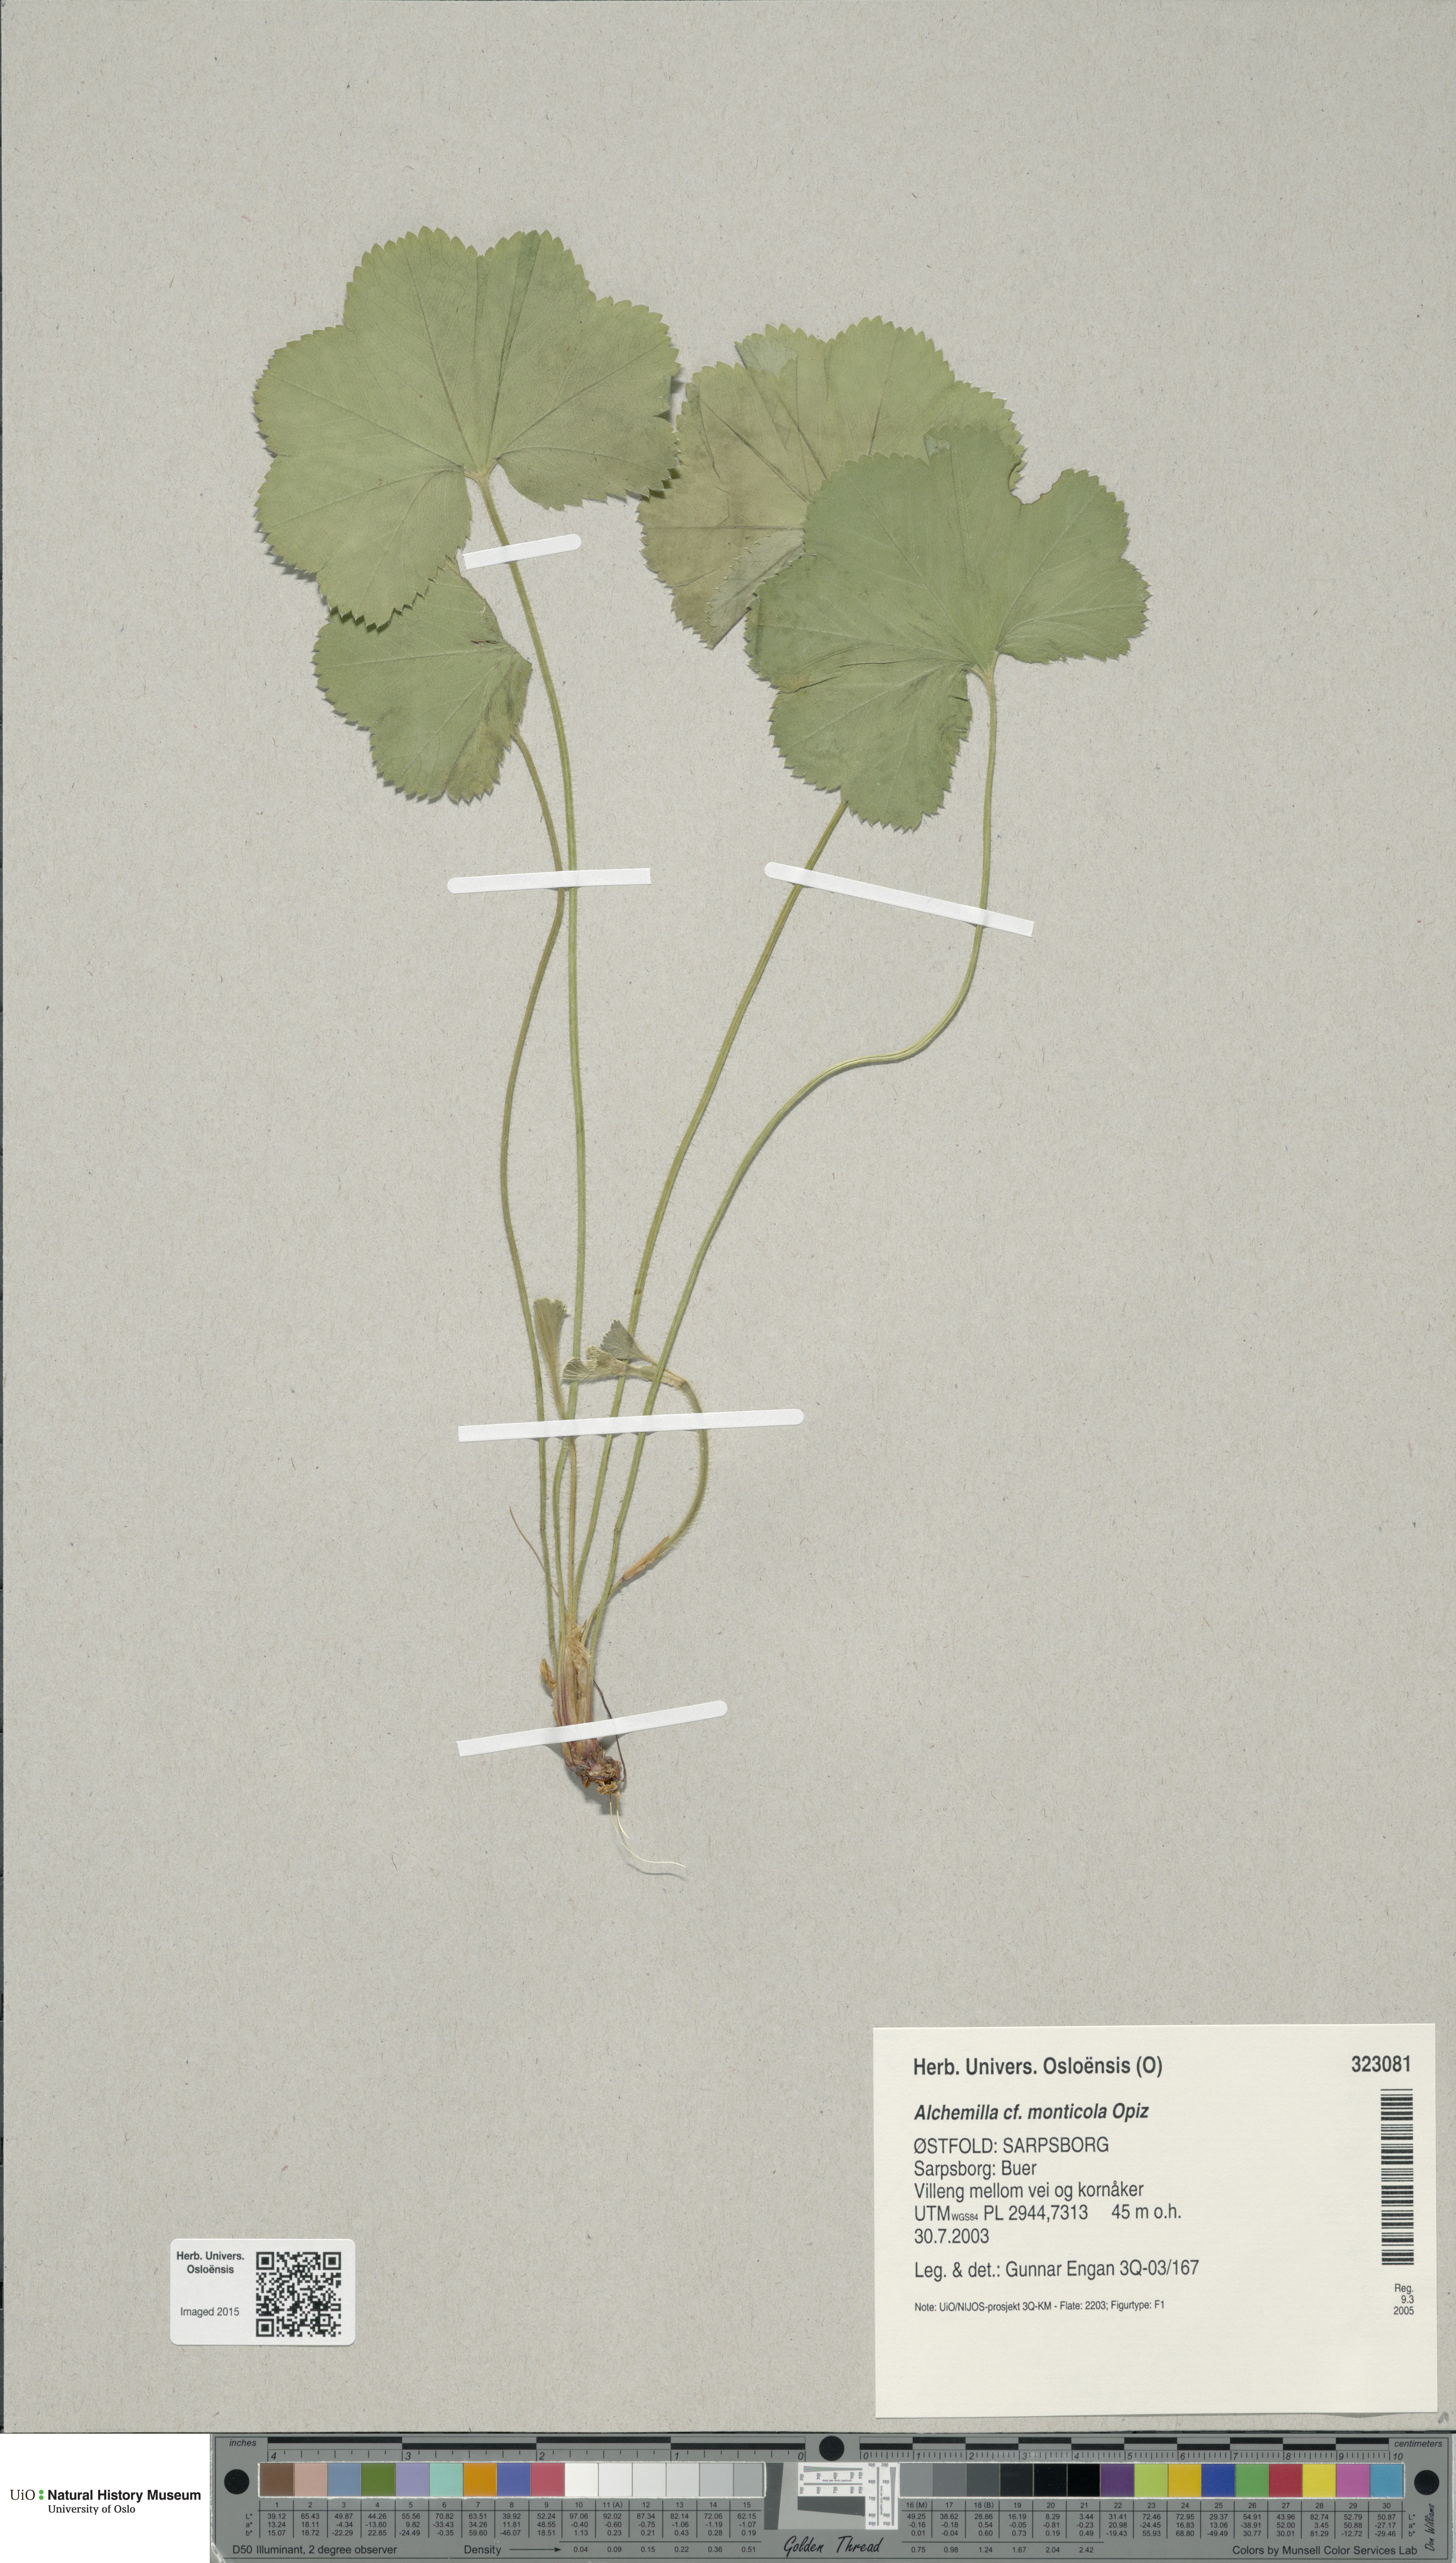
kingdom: Plantae
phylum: Tracheophyta
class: Magnoliopsida
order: Rosales
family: Rosaceae
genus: Alchemilla
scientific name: Alchemilla monticola
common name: Hairy lady's mantle
